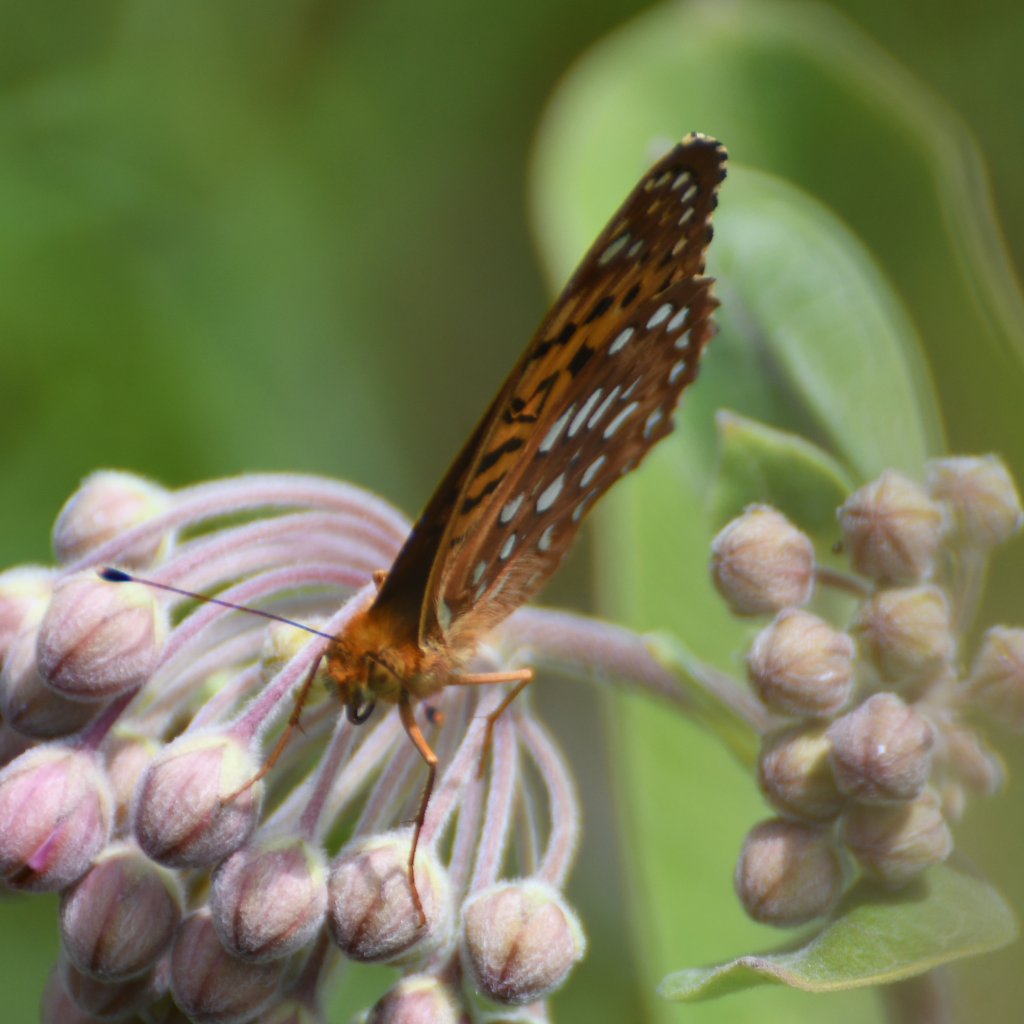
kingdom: Animalia
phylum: Arthropoda
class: Insecta
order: Lepidoptera
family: Nymphalidae
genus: Speyeria
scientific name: Speyeria aphrodite
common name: Aphrodite Fritillary
